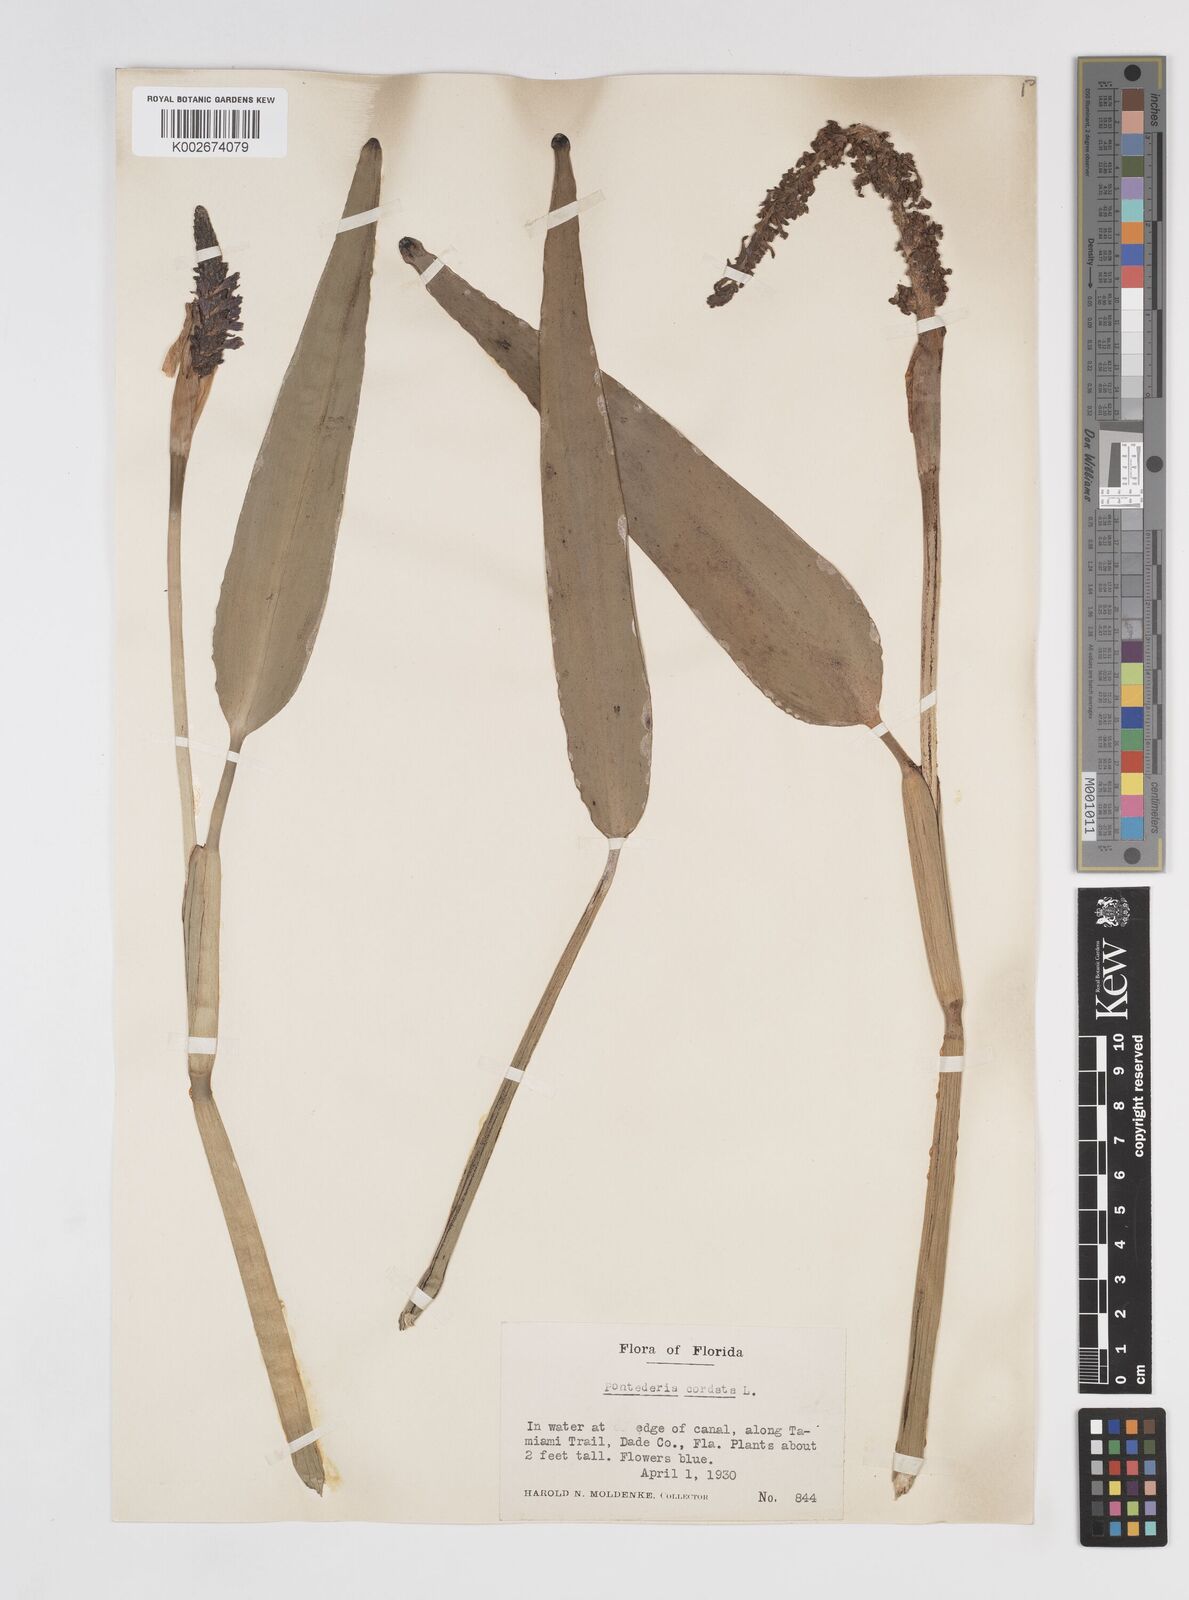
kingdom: Plantae
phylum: Tracheophyta
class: Liliopsida
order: Commelinales
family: Pontederiaceae
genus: Pontederia
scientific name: Pontederia cordata
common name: Pickerelweed
